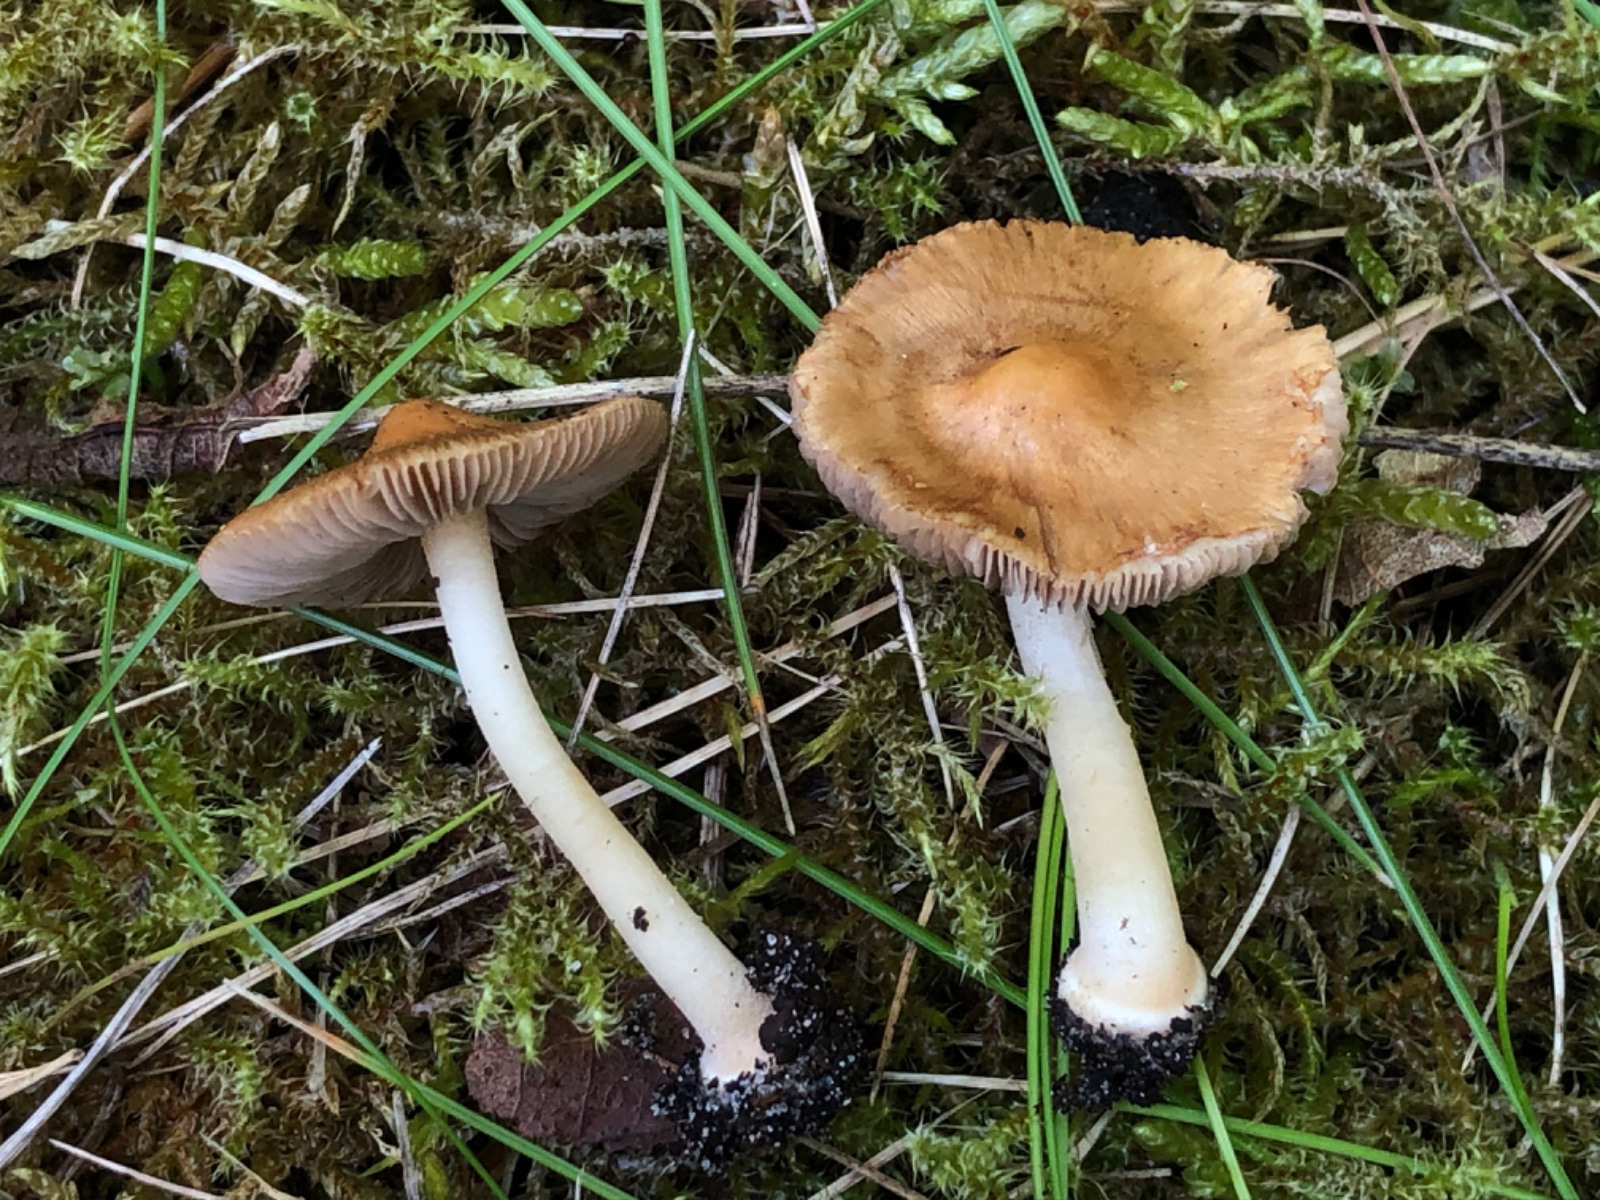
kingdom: Fungi
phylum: Basidiomycota
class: Agaricomycetes
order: Agaricales
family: Inocybaceae
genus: Inocybe
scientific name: Inocybe
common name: trævlhat
